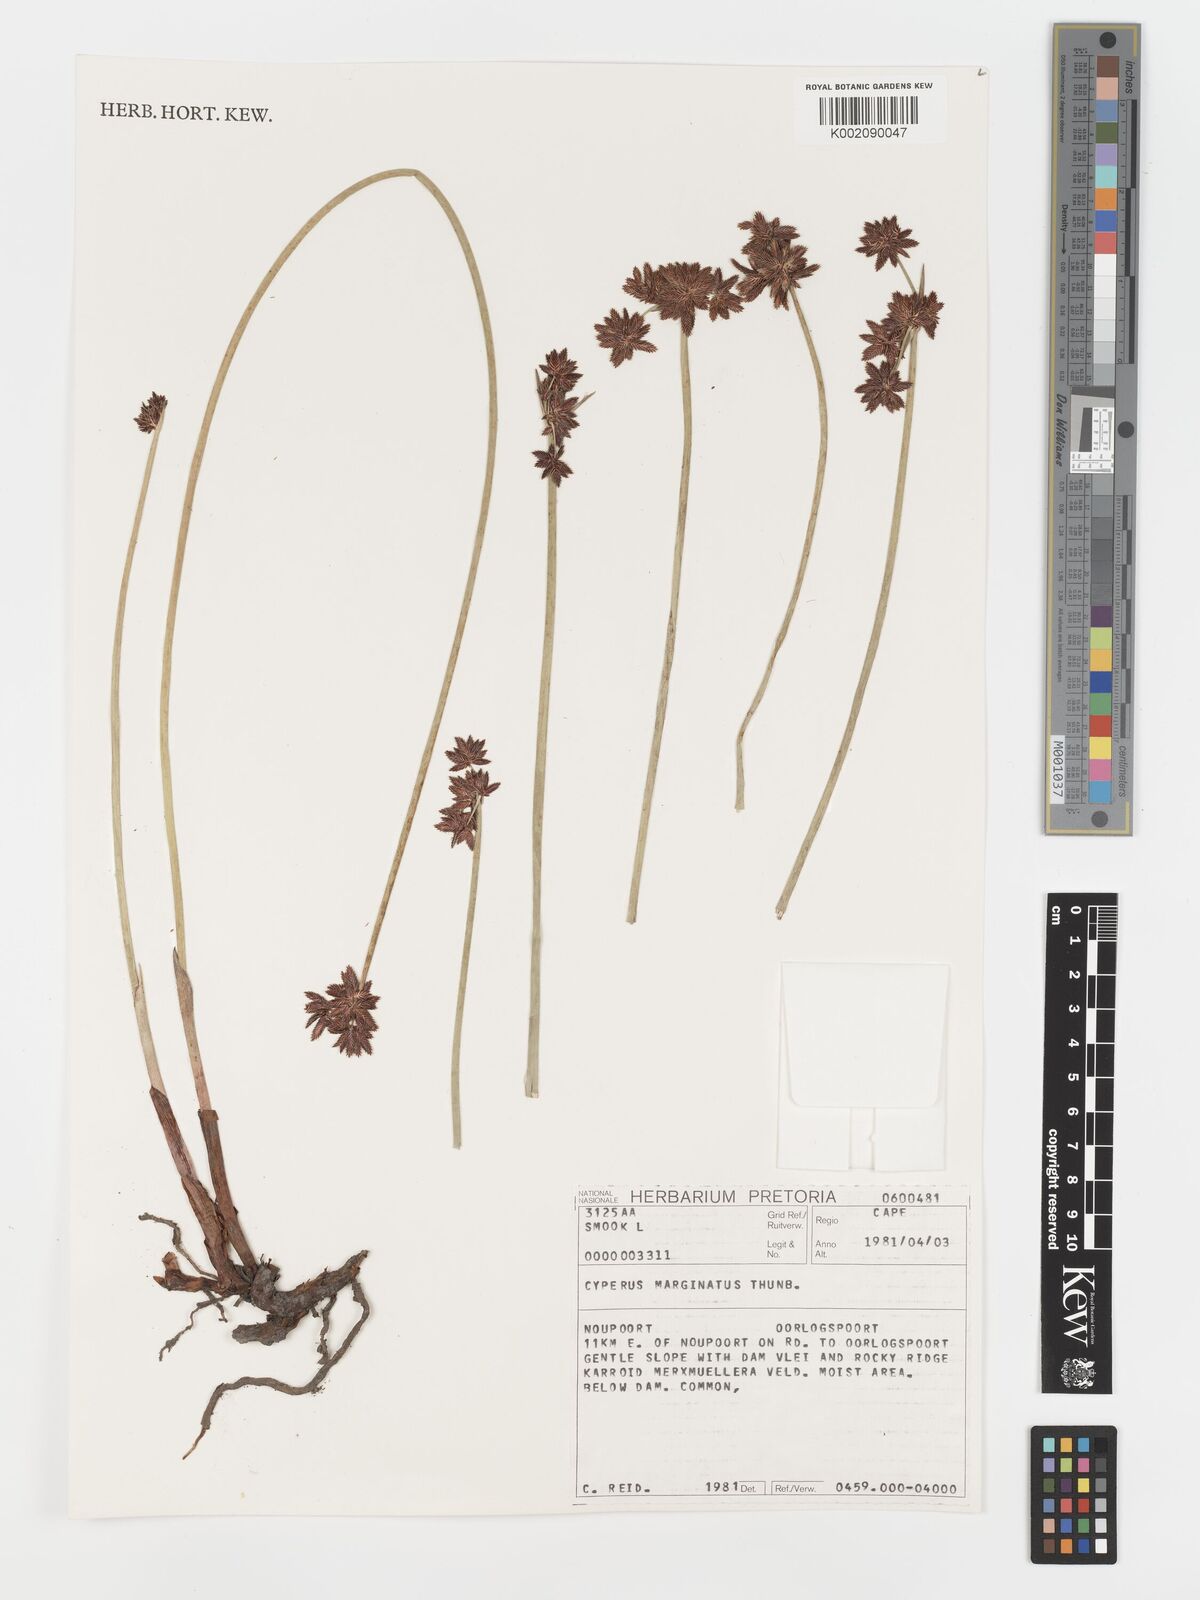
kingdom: Plantae
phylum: Tracheophyta
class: Liliopsida
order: Poales
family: Cyperaceae
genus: Cyperus
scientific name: Cyperus marginatus
